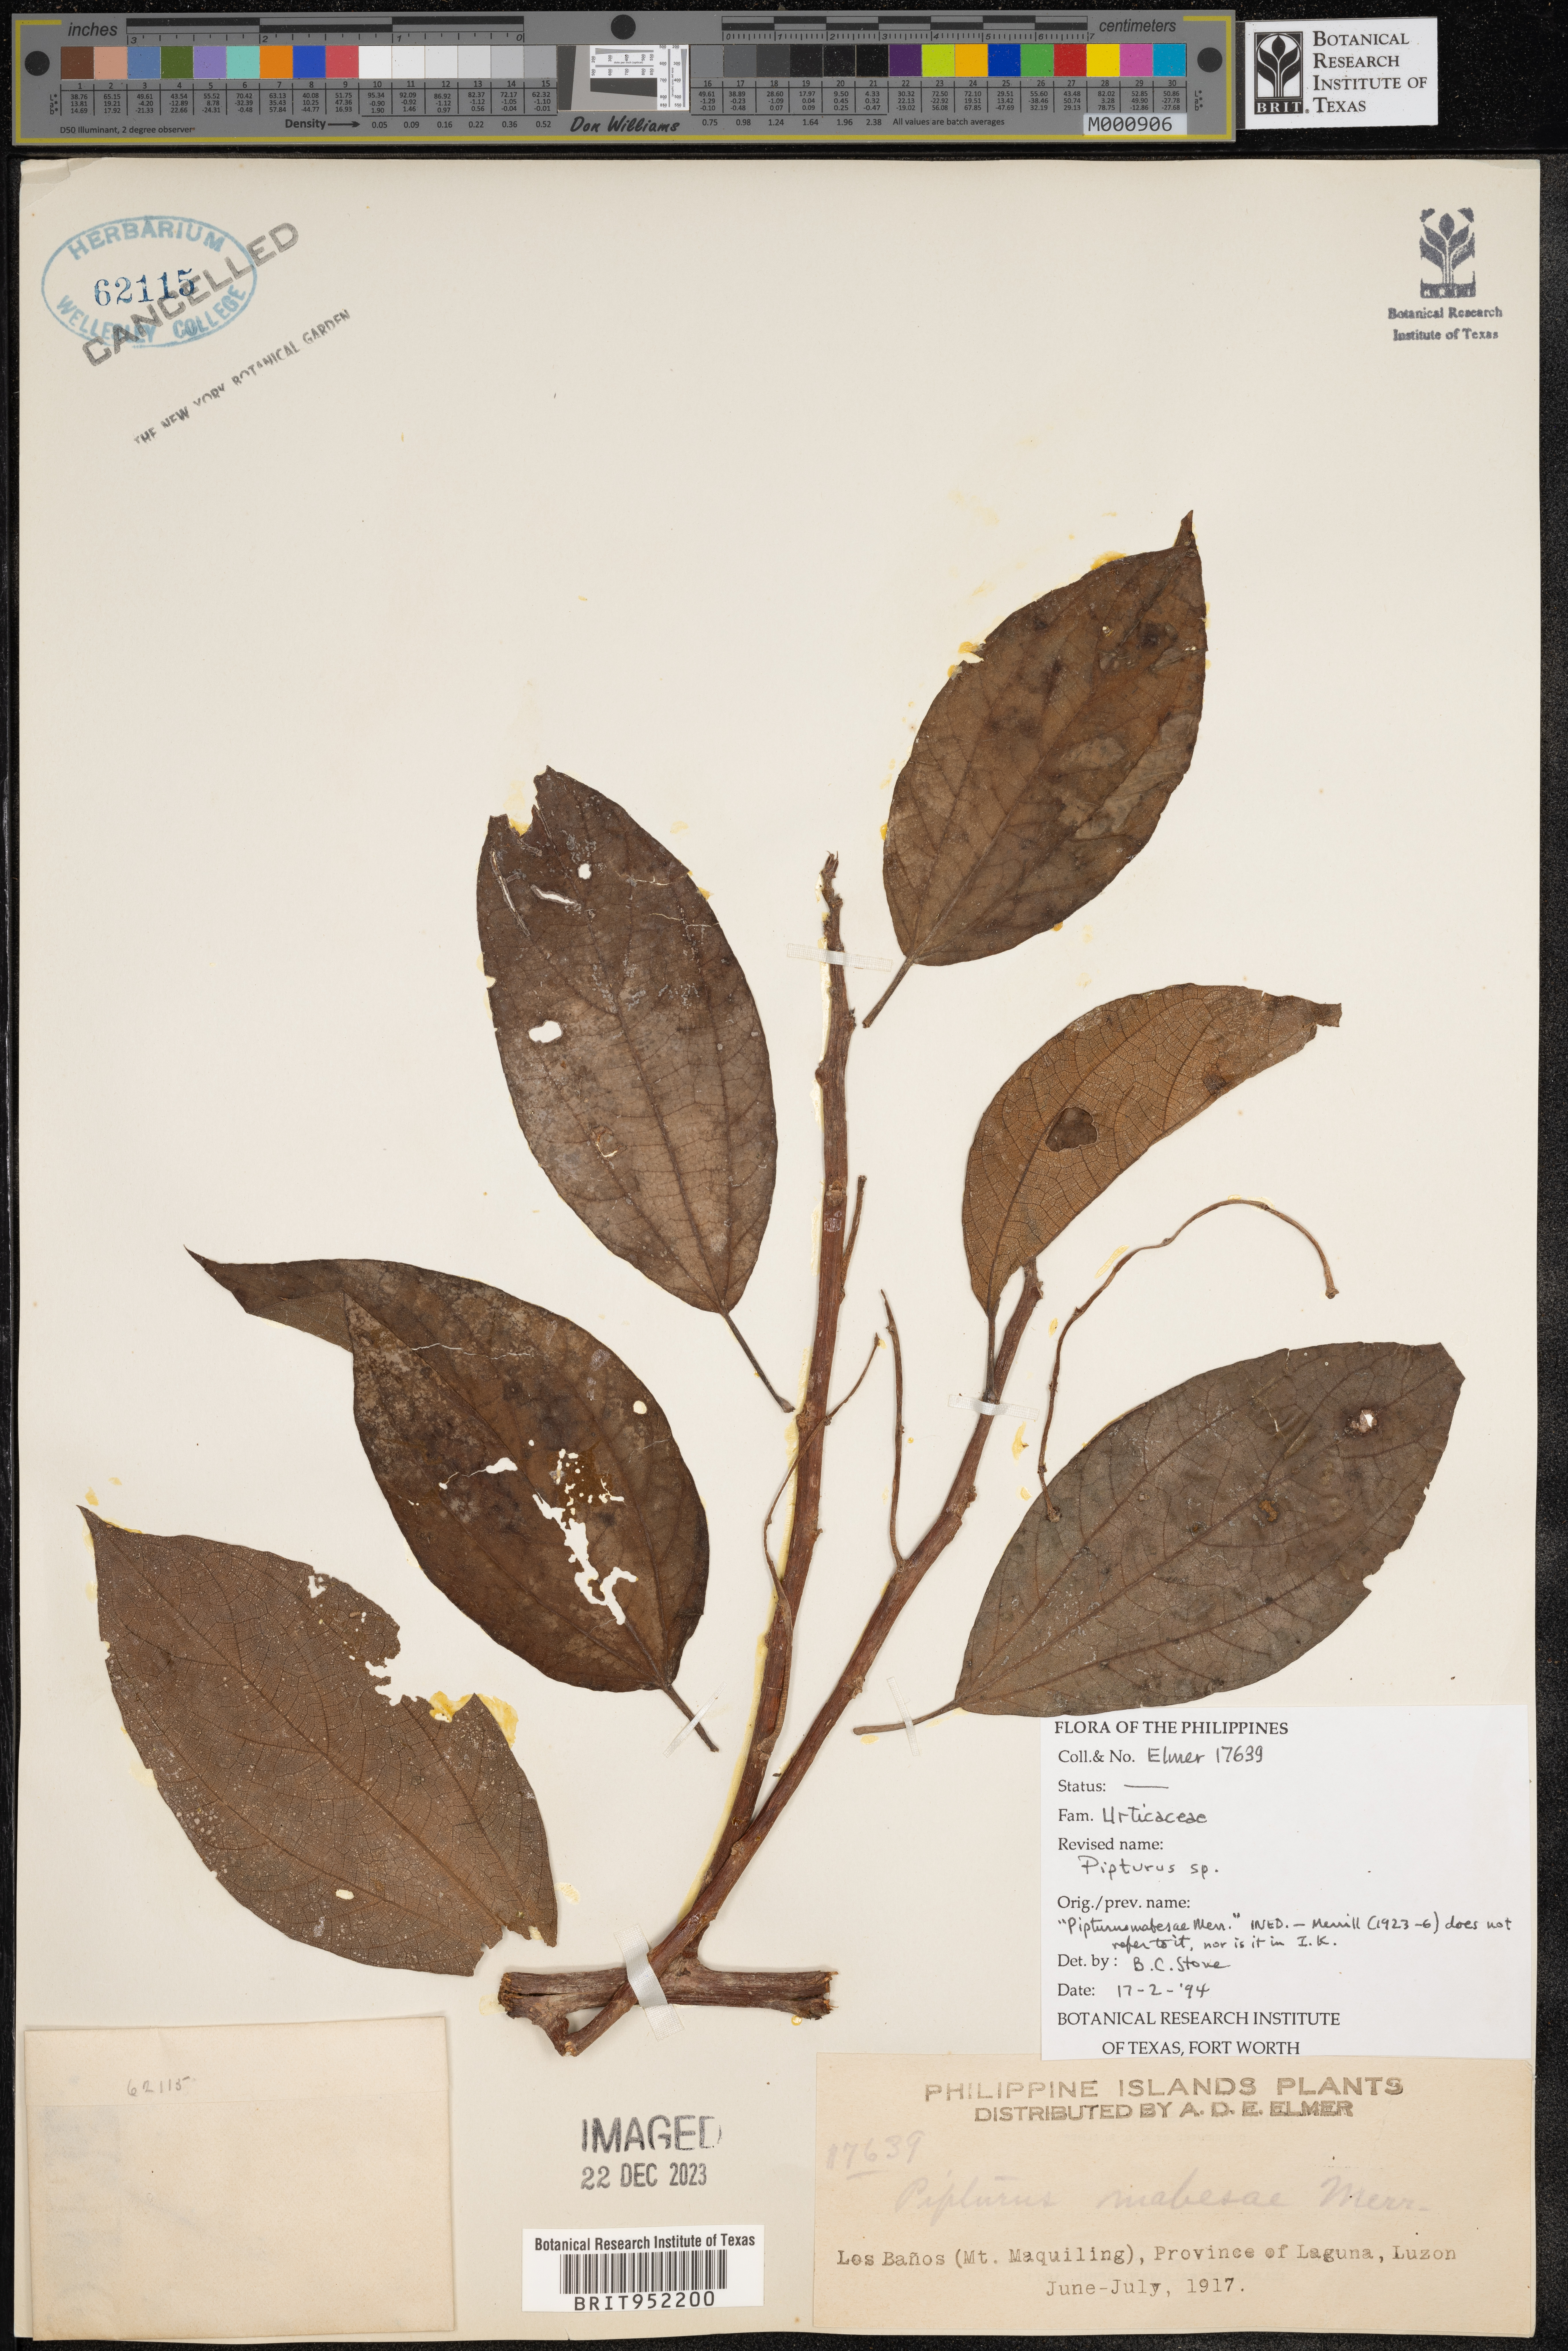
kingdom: Plantae
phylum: Tracheophyta
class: Magnoliopsida
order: Rosales
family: Urticaceae
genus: Pipturus
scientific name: Pipturus argenteus
